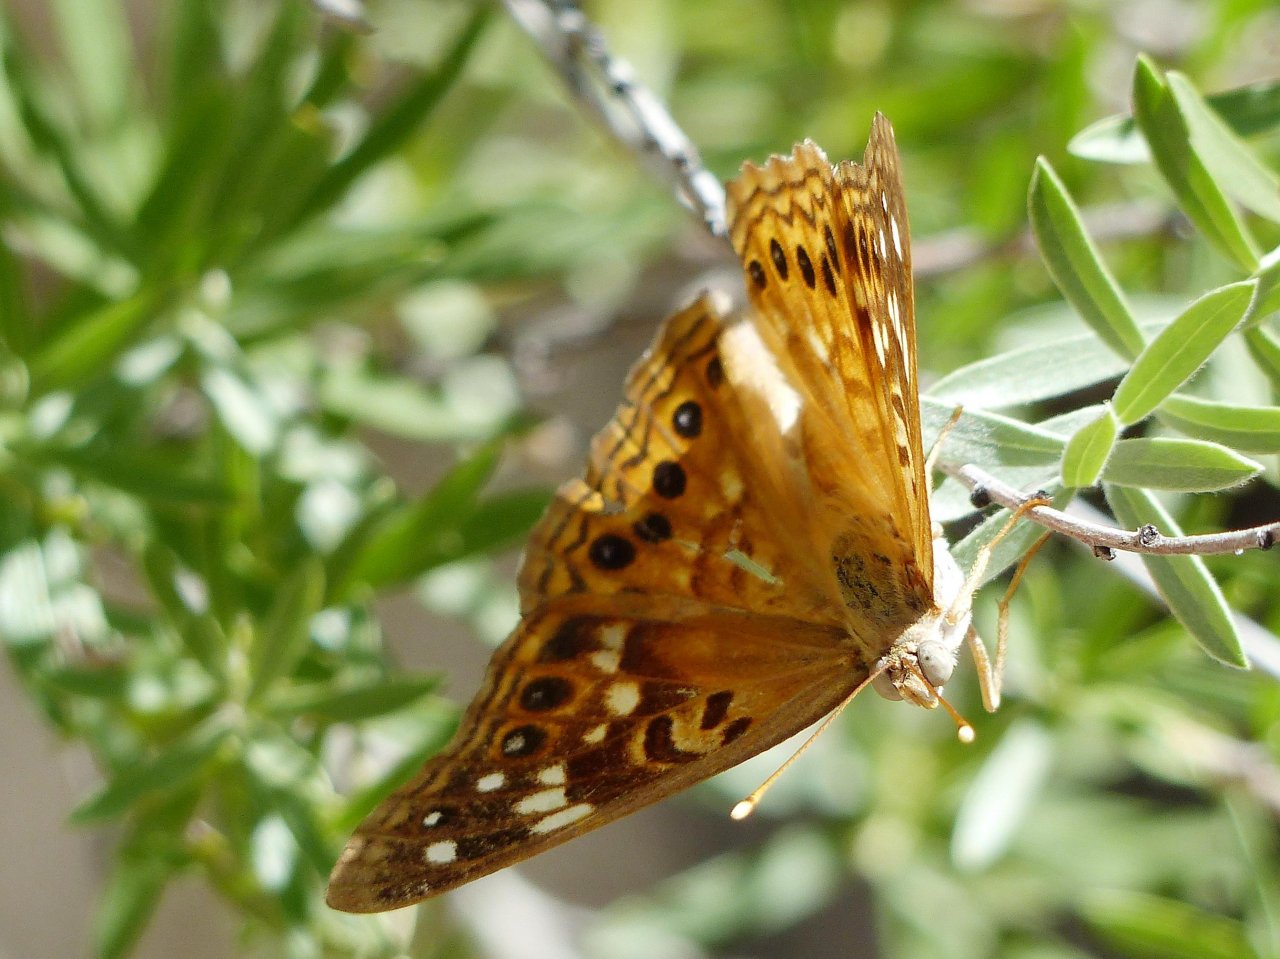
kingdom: Animalia
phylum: Arthropoda
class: Insecta
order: Lepidoptera
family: Nymphalidae
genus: Asterocampa
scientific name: Asterocampa celtis
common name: Hackberry Emperor
